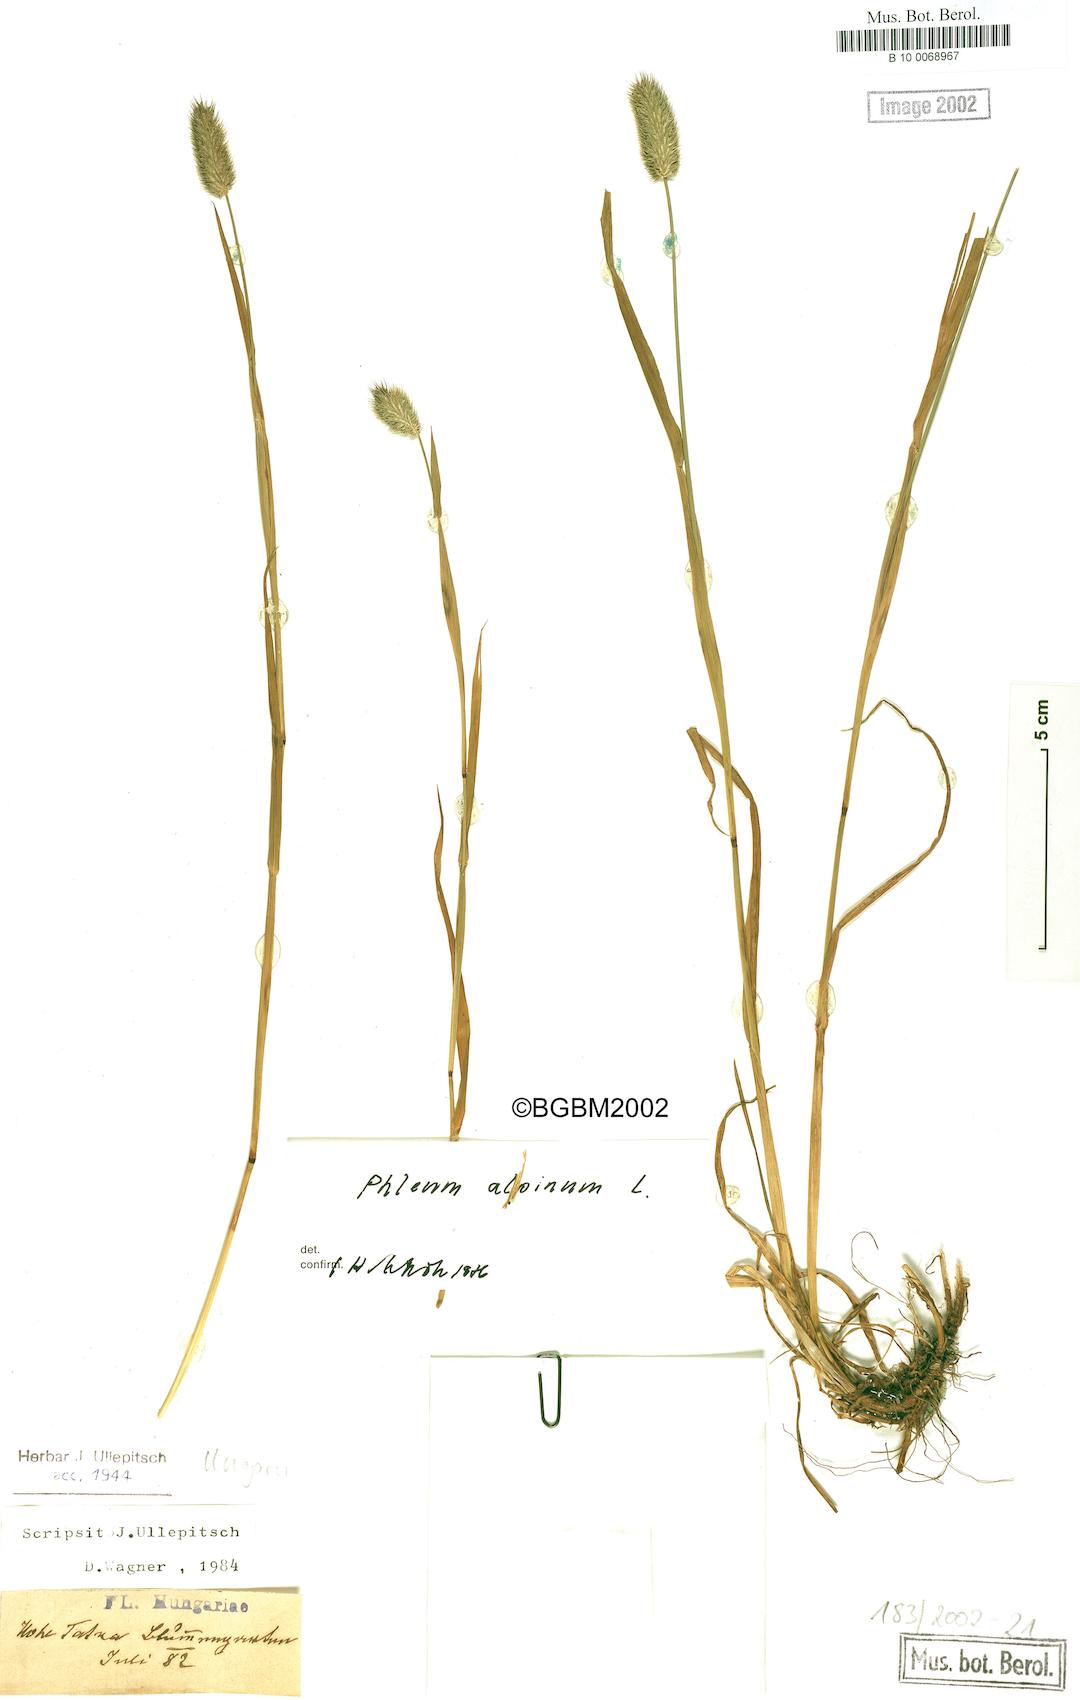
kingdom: Plantae
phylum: Tracheophyta
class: Liliopsida
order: Poales
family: Poaceae
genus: Phleum
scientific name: Phleum alpinum
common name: Alpine cat's-tail
